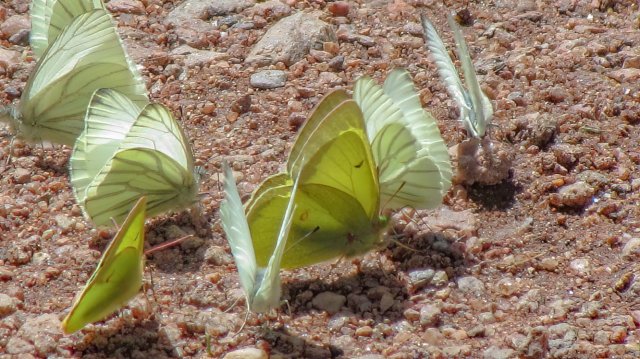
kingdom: Animalia
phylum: Arthropoda
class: Insecta
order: Lepidoptera
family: Pieridae
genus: Colias
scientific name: Colias scudderi
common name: Scudder's Sulphur
